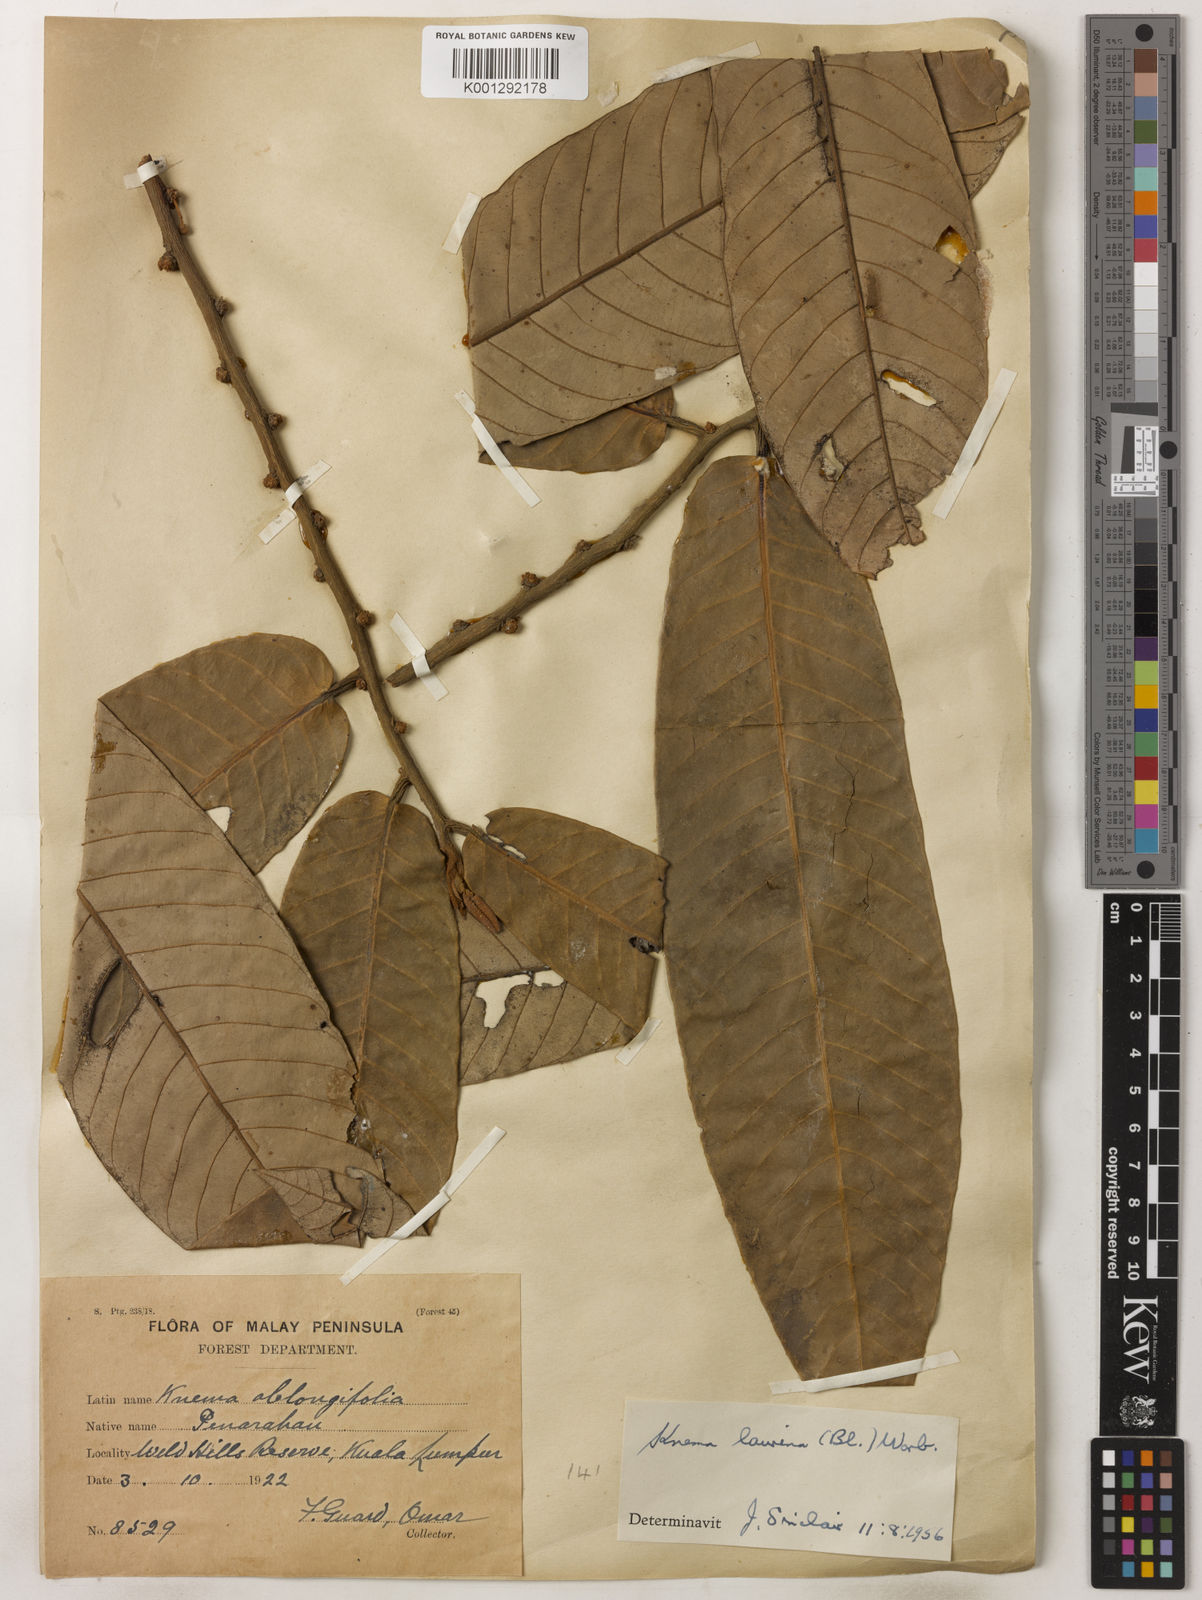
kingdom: Plantae
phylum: Tracheophyta
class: Magnoliopsida
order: Magnoliales
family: Myristicaceae
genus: Knema
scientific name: Knema laurina
